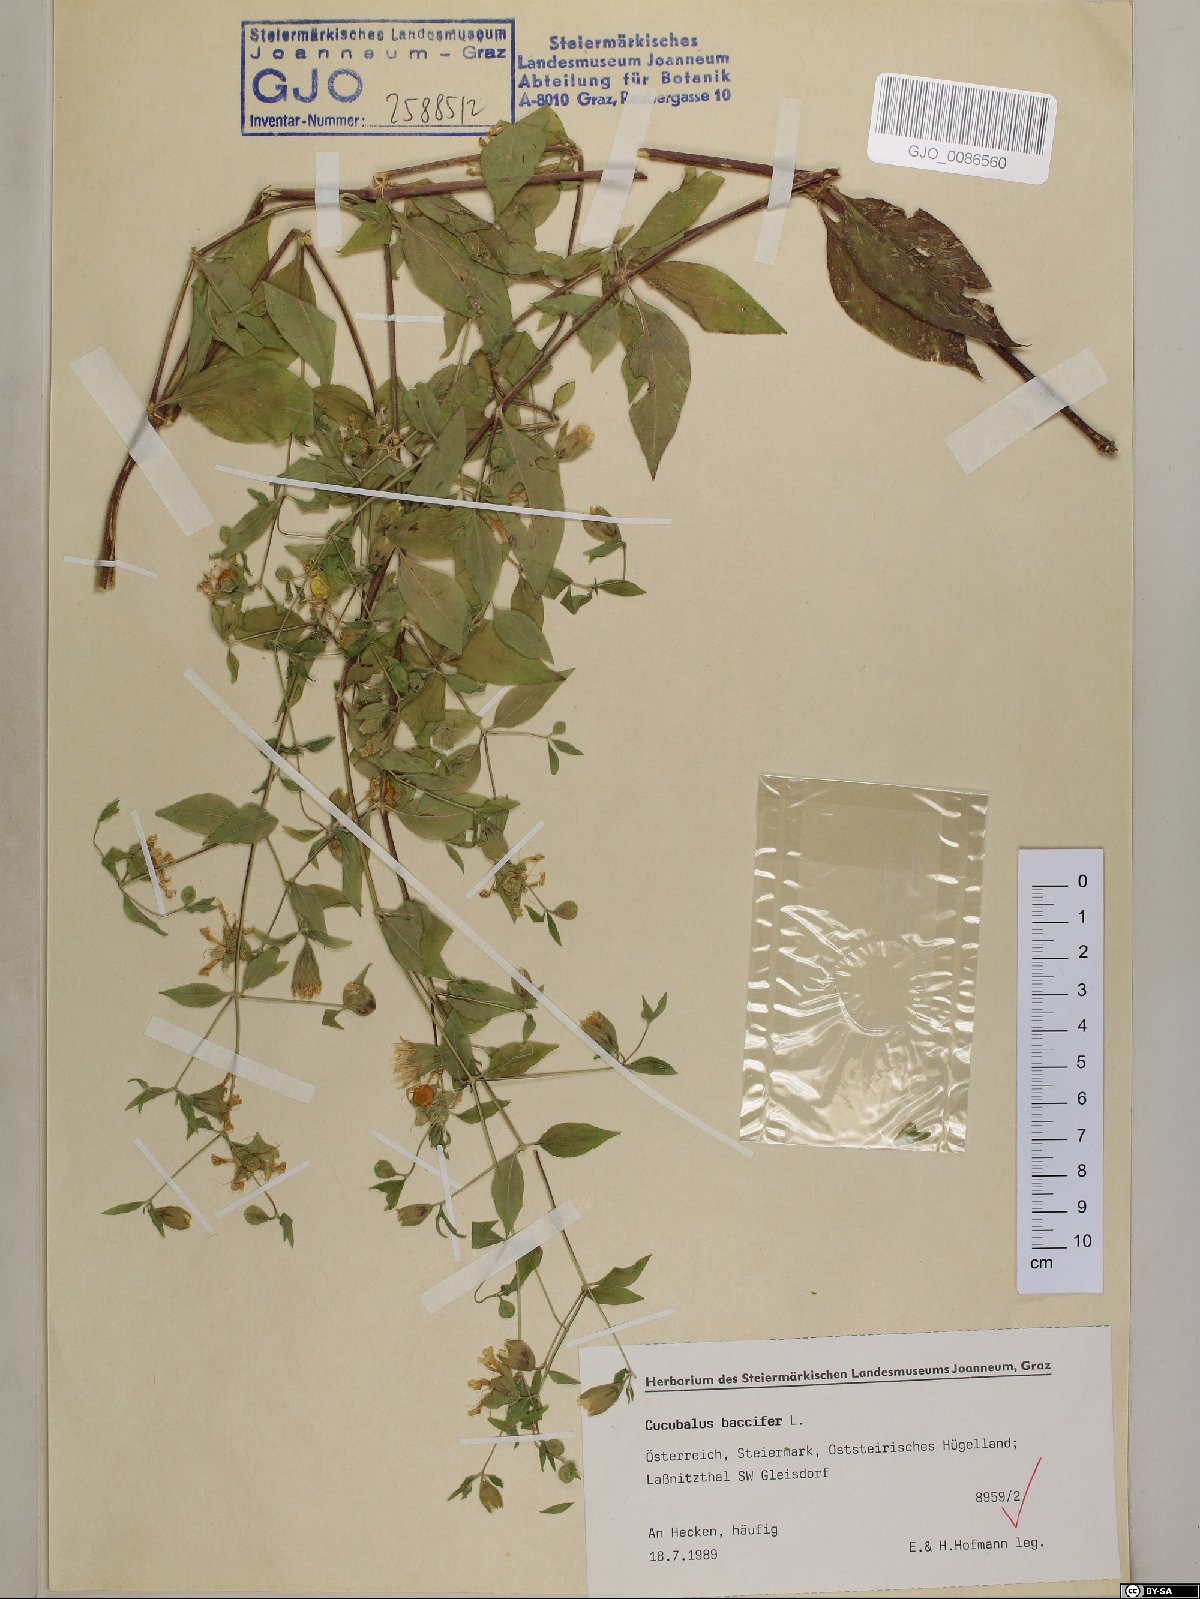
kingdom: Plantae
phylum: Tracheophyta
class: Magnoliopsida
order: Caryophyllales
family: Caryophyllaceae
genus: Silene
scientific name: Silene baccifera
